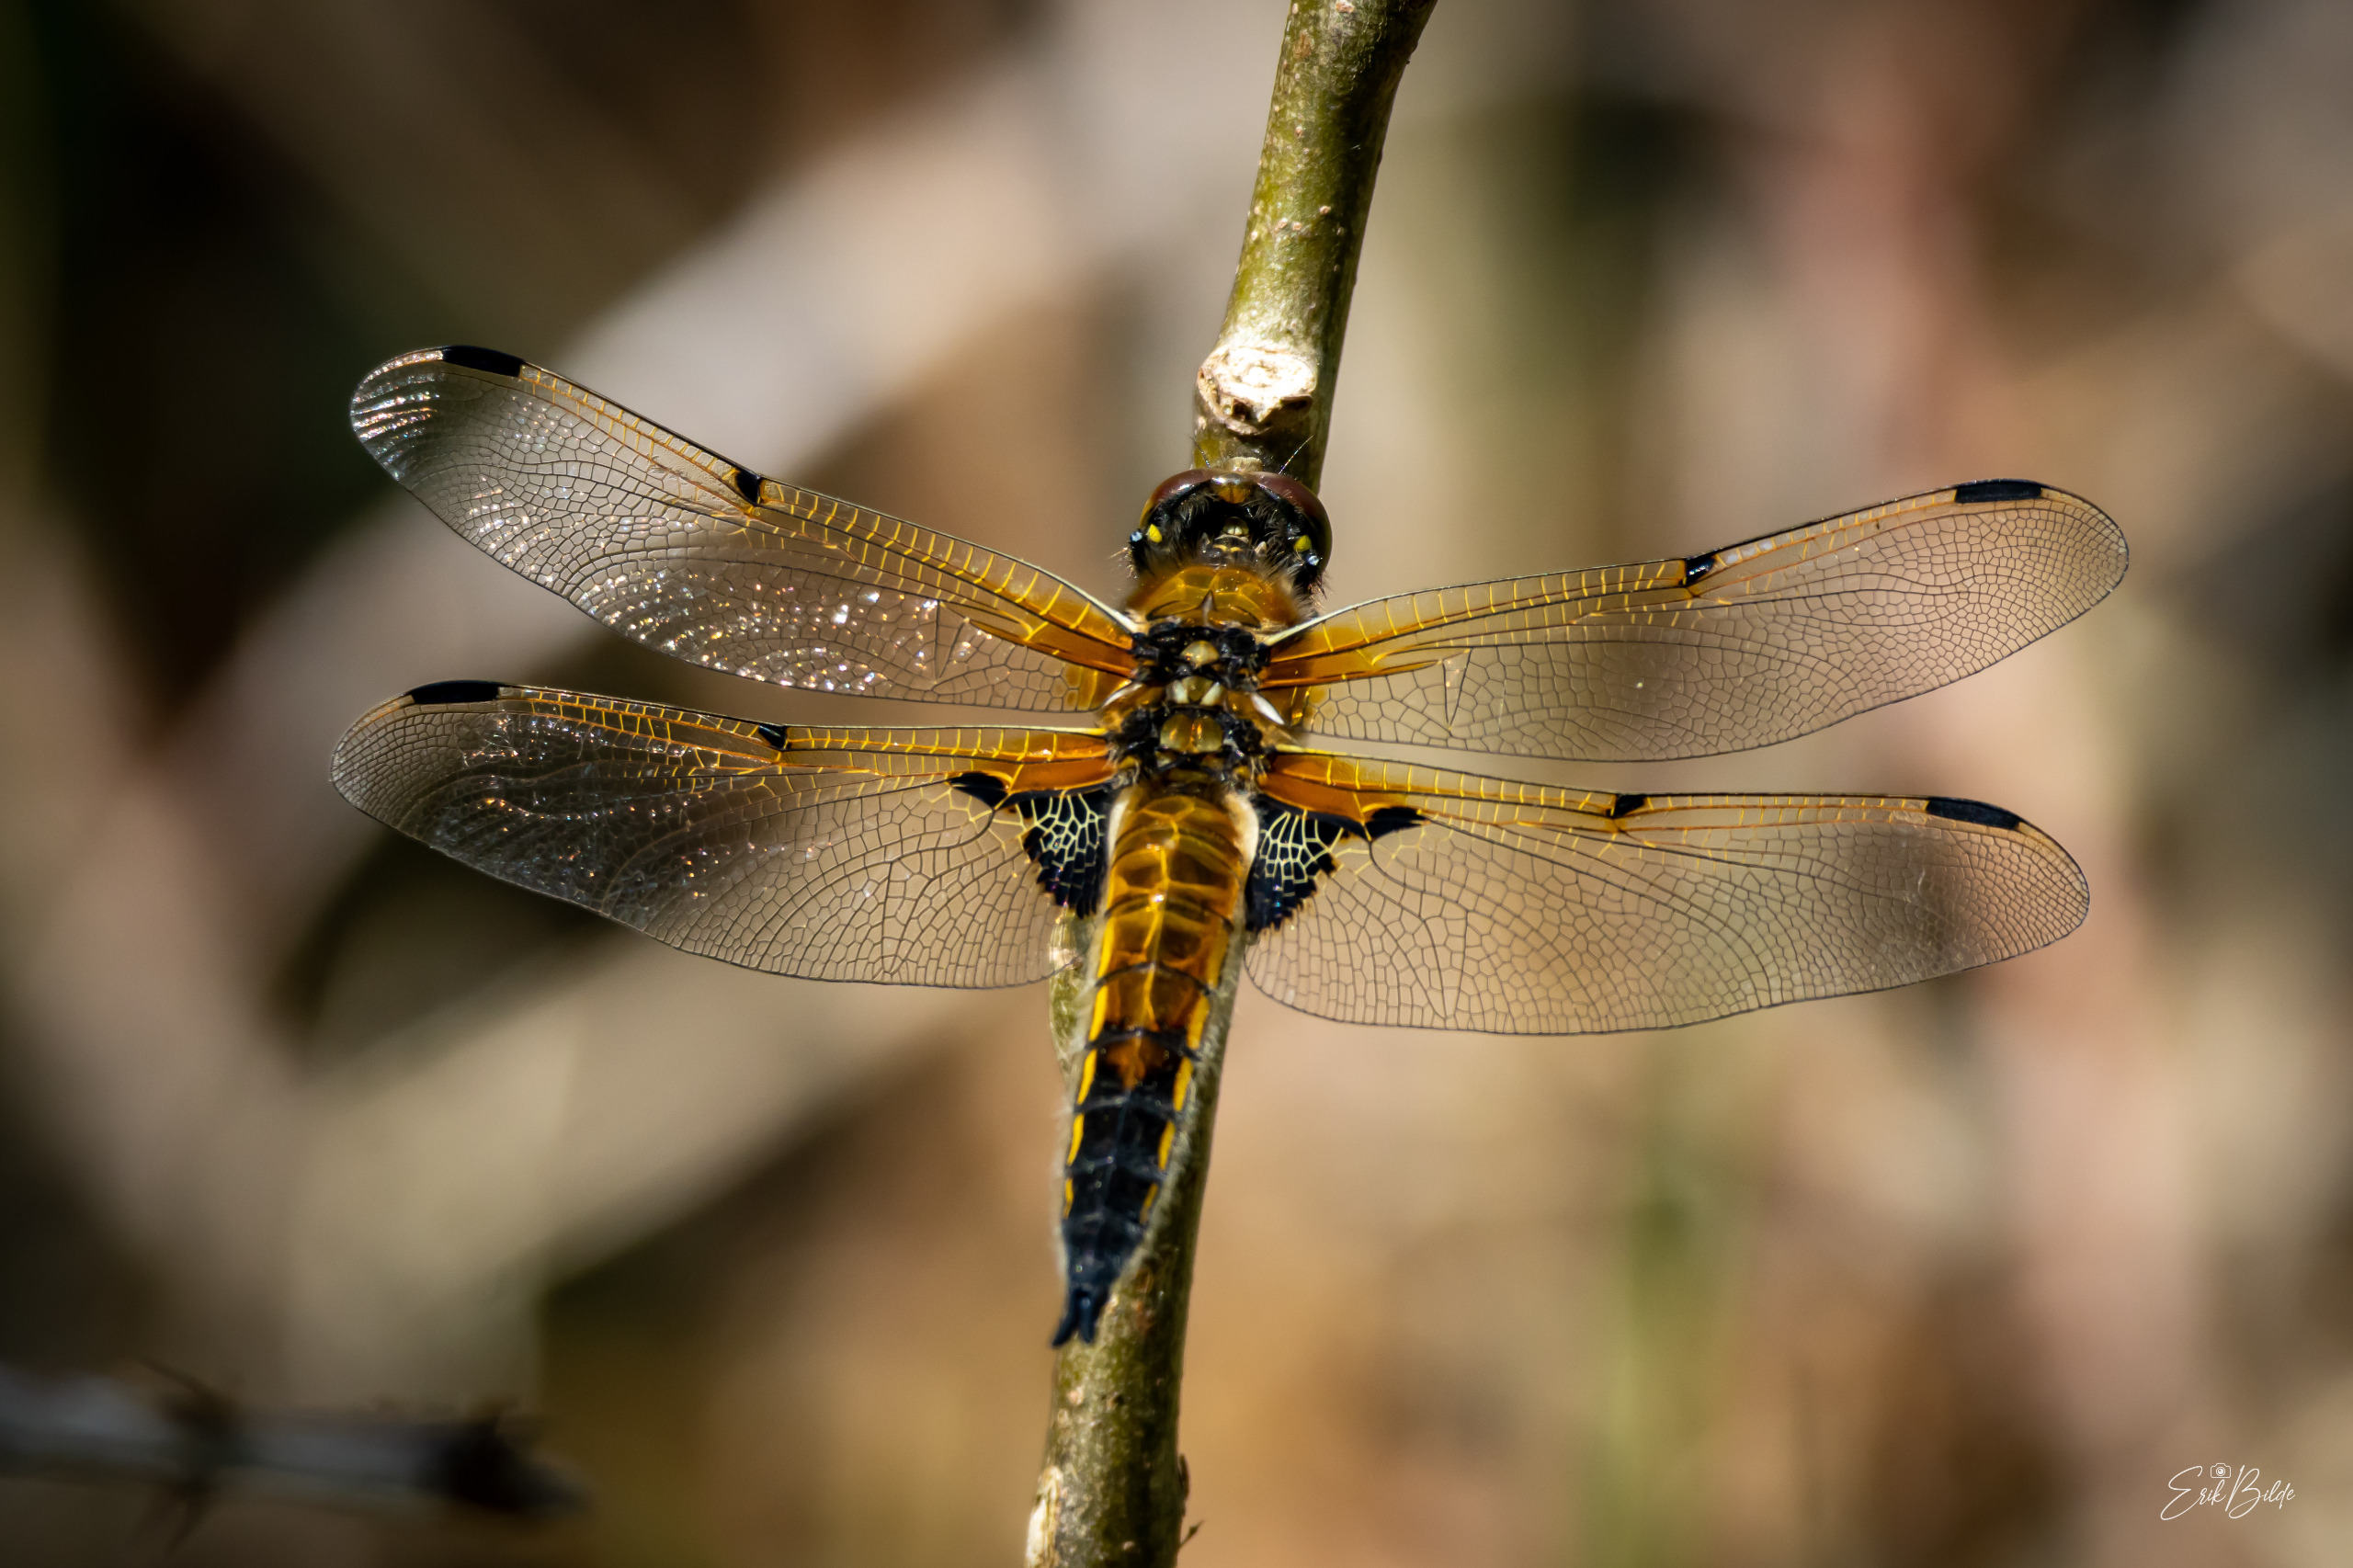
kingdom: Animalia
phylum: Arthropoda
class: Insecta
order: Odonata
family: Libellulidae
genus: Libellula
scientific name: Libellula quadrimaculata
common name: Fireplettet libel
